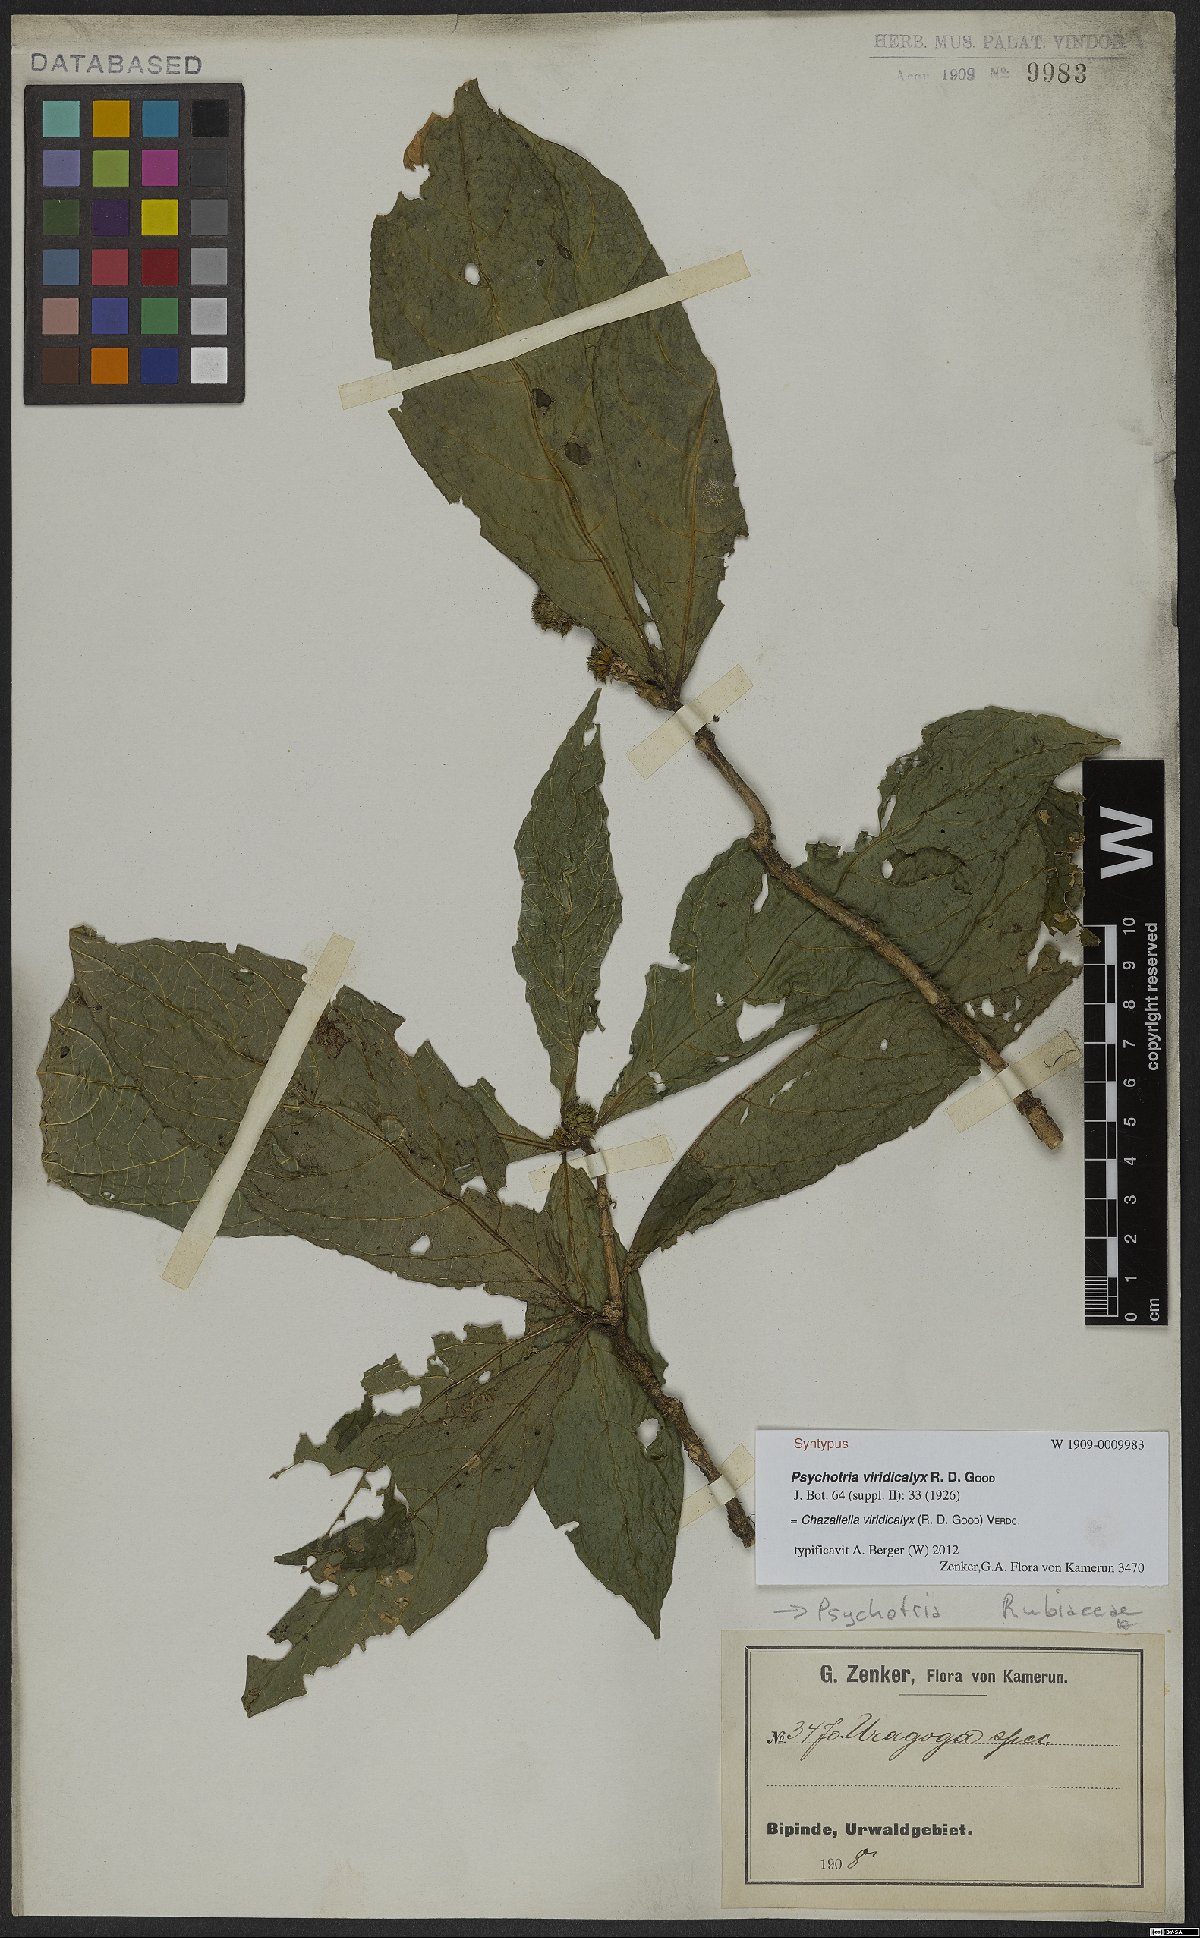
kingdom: Plantae
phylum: Tracheophyta
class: Magnoliopsida
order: Gentianales
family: Rubiaceae
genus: Eumachia
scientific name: Eumachia viridicalyx
